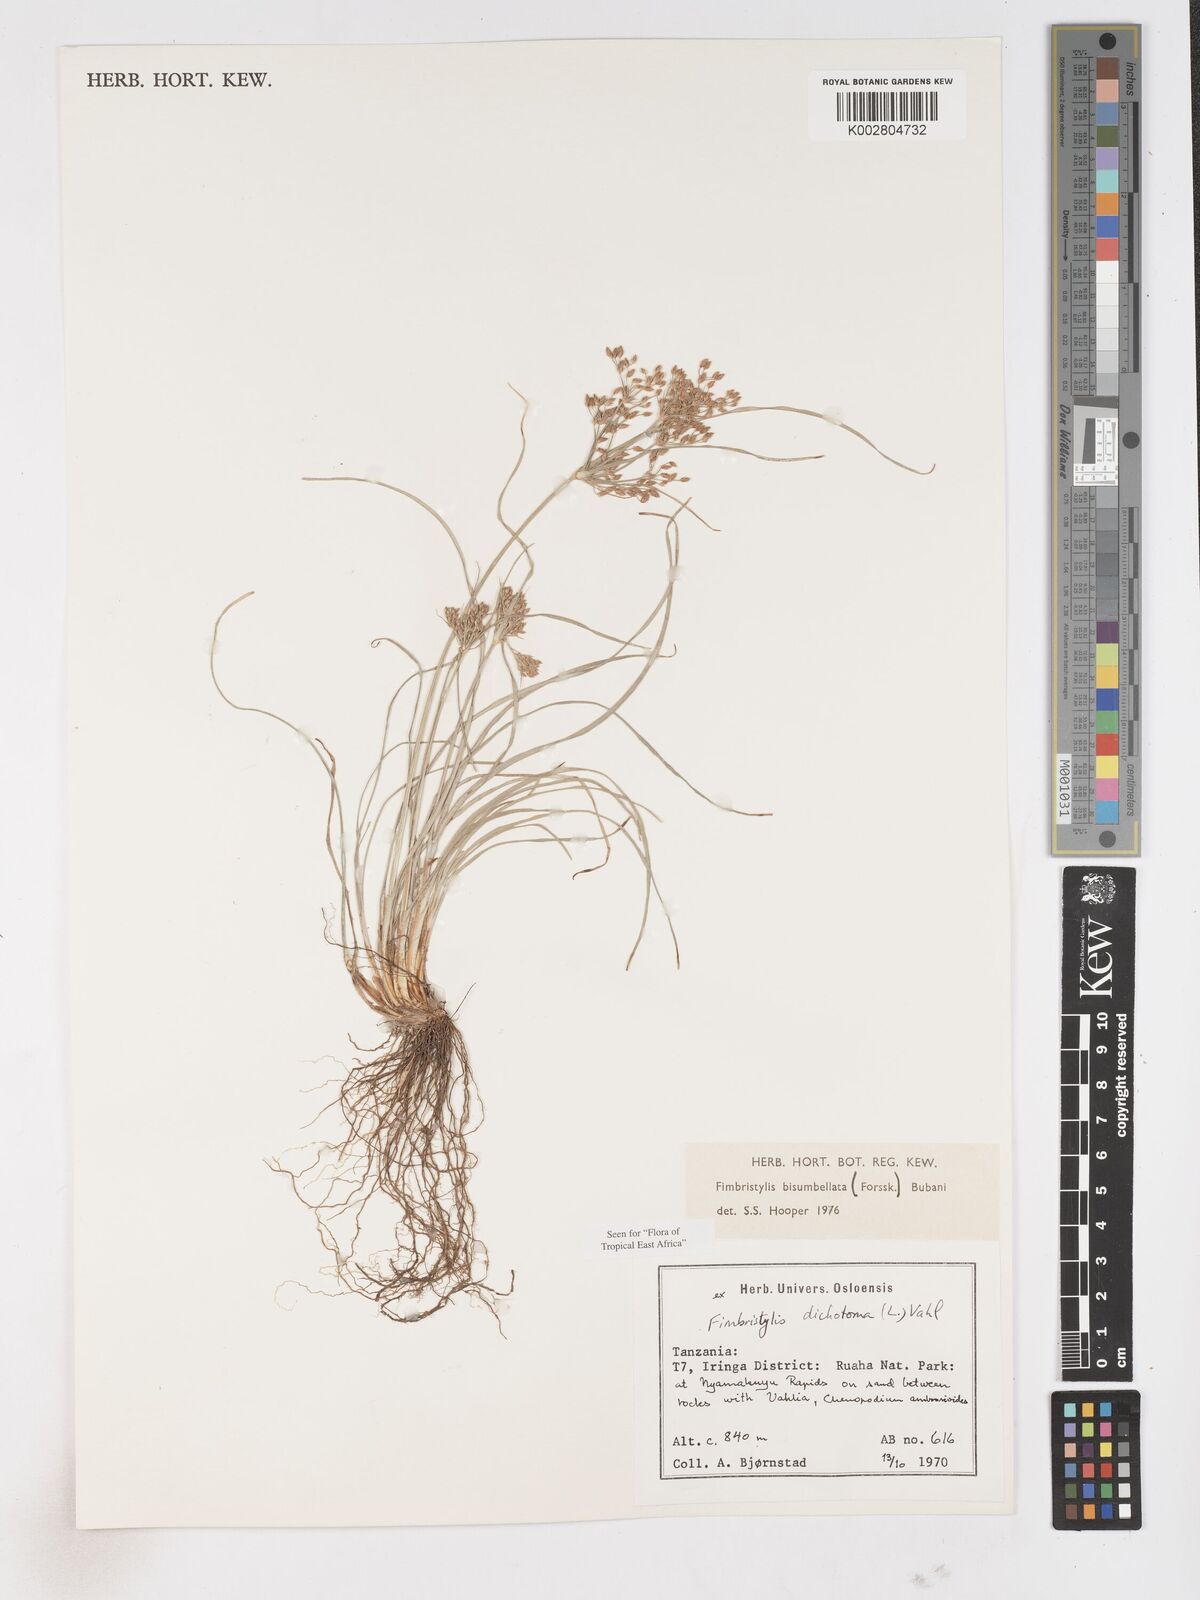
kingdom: Plantae
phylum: Tracheophyta
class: Liliopsida
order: Poales
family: Cyperaceae
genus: Fimbristylis
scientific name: Fimbristylis bisumbellata
